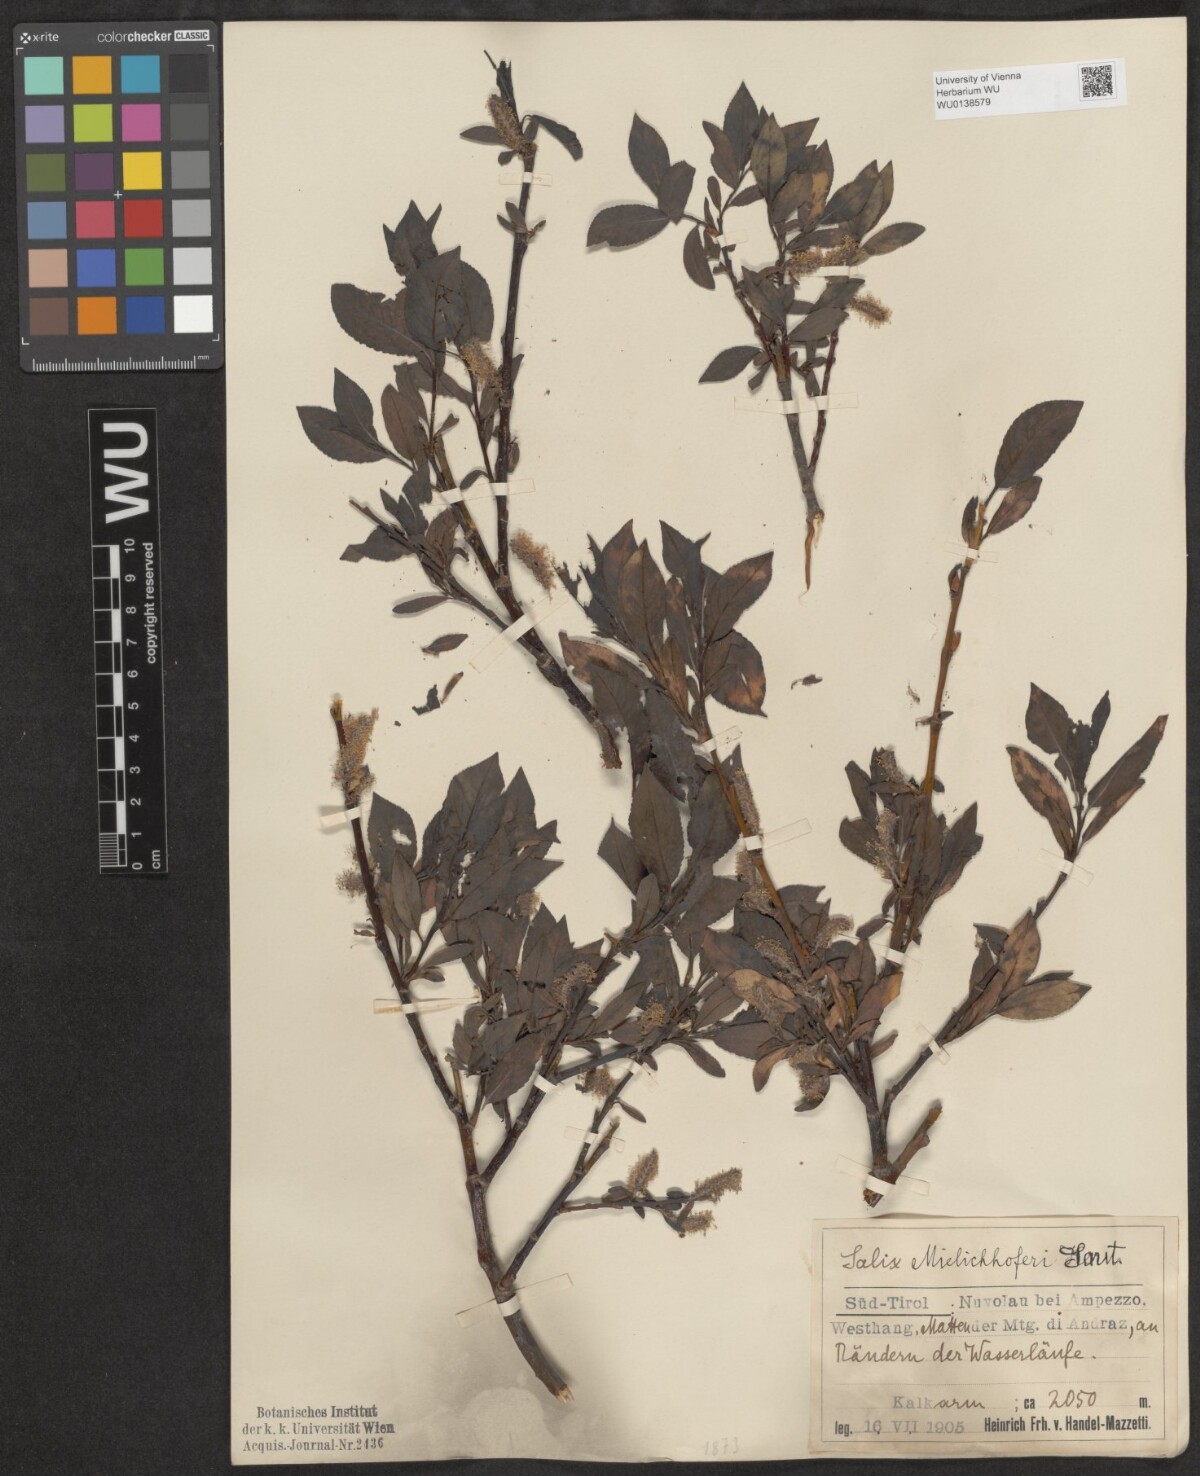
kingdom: Plantae
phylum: Tracheophyta
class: Magnoliopsida
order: Malpighiales
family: Salicaceae
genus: Salix
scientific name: Salix mielichhoferi
